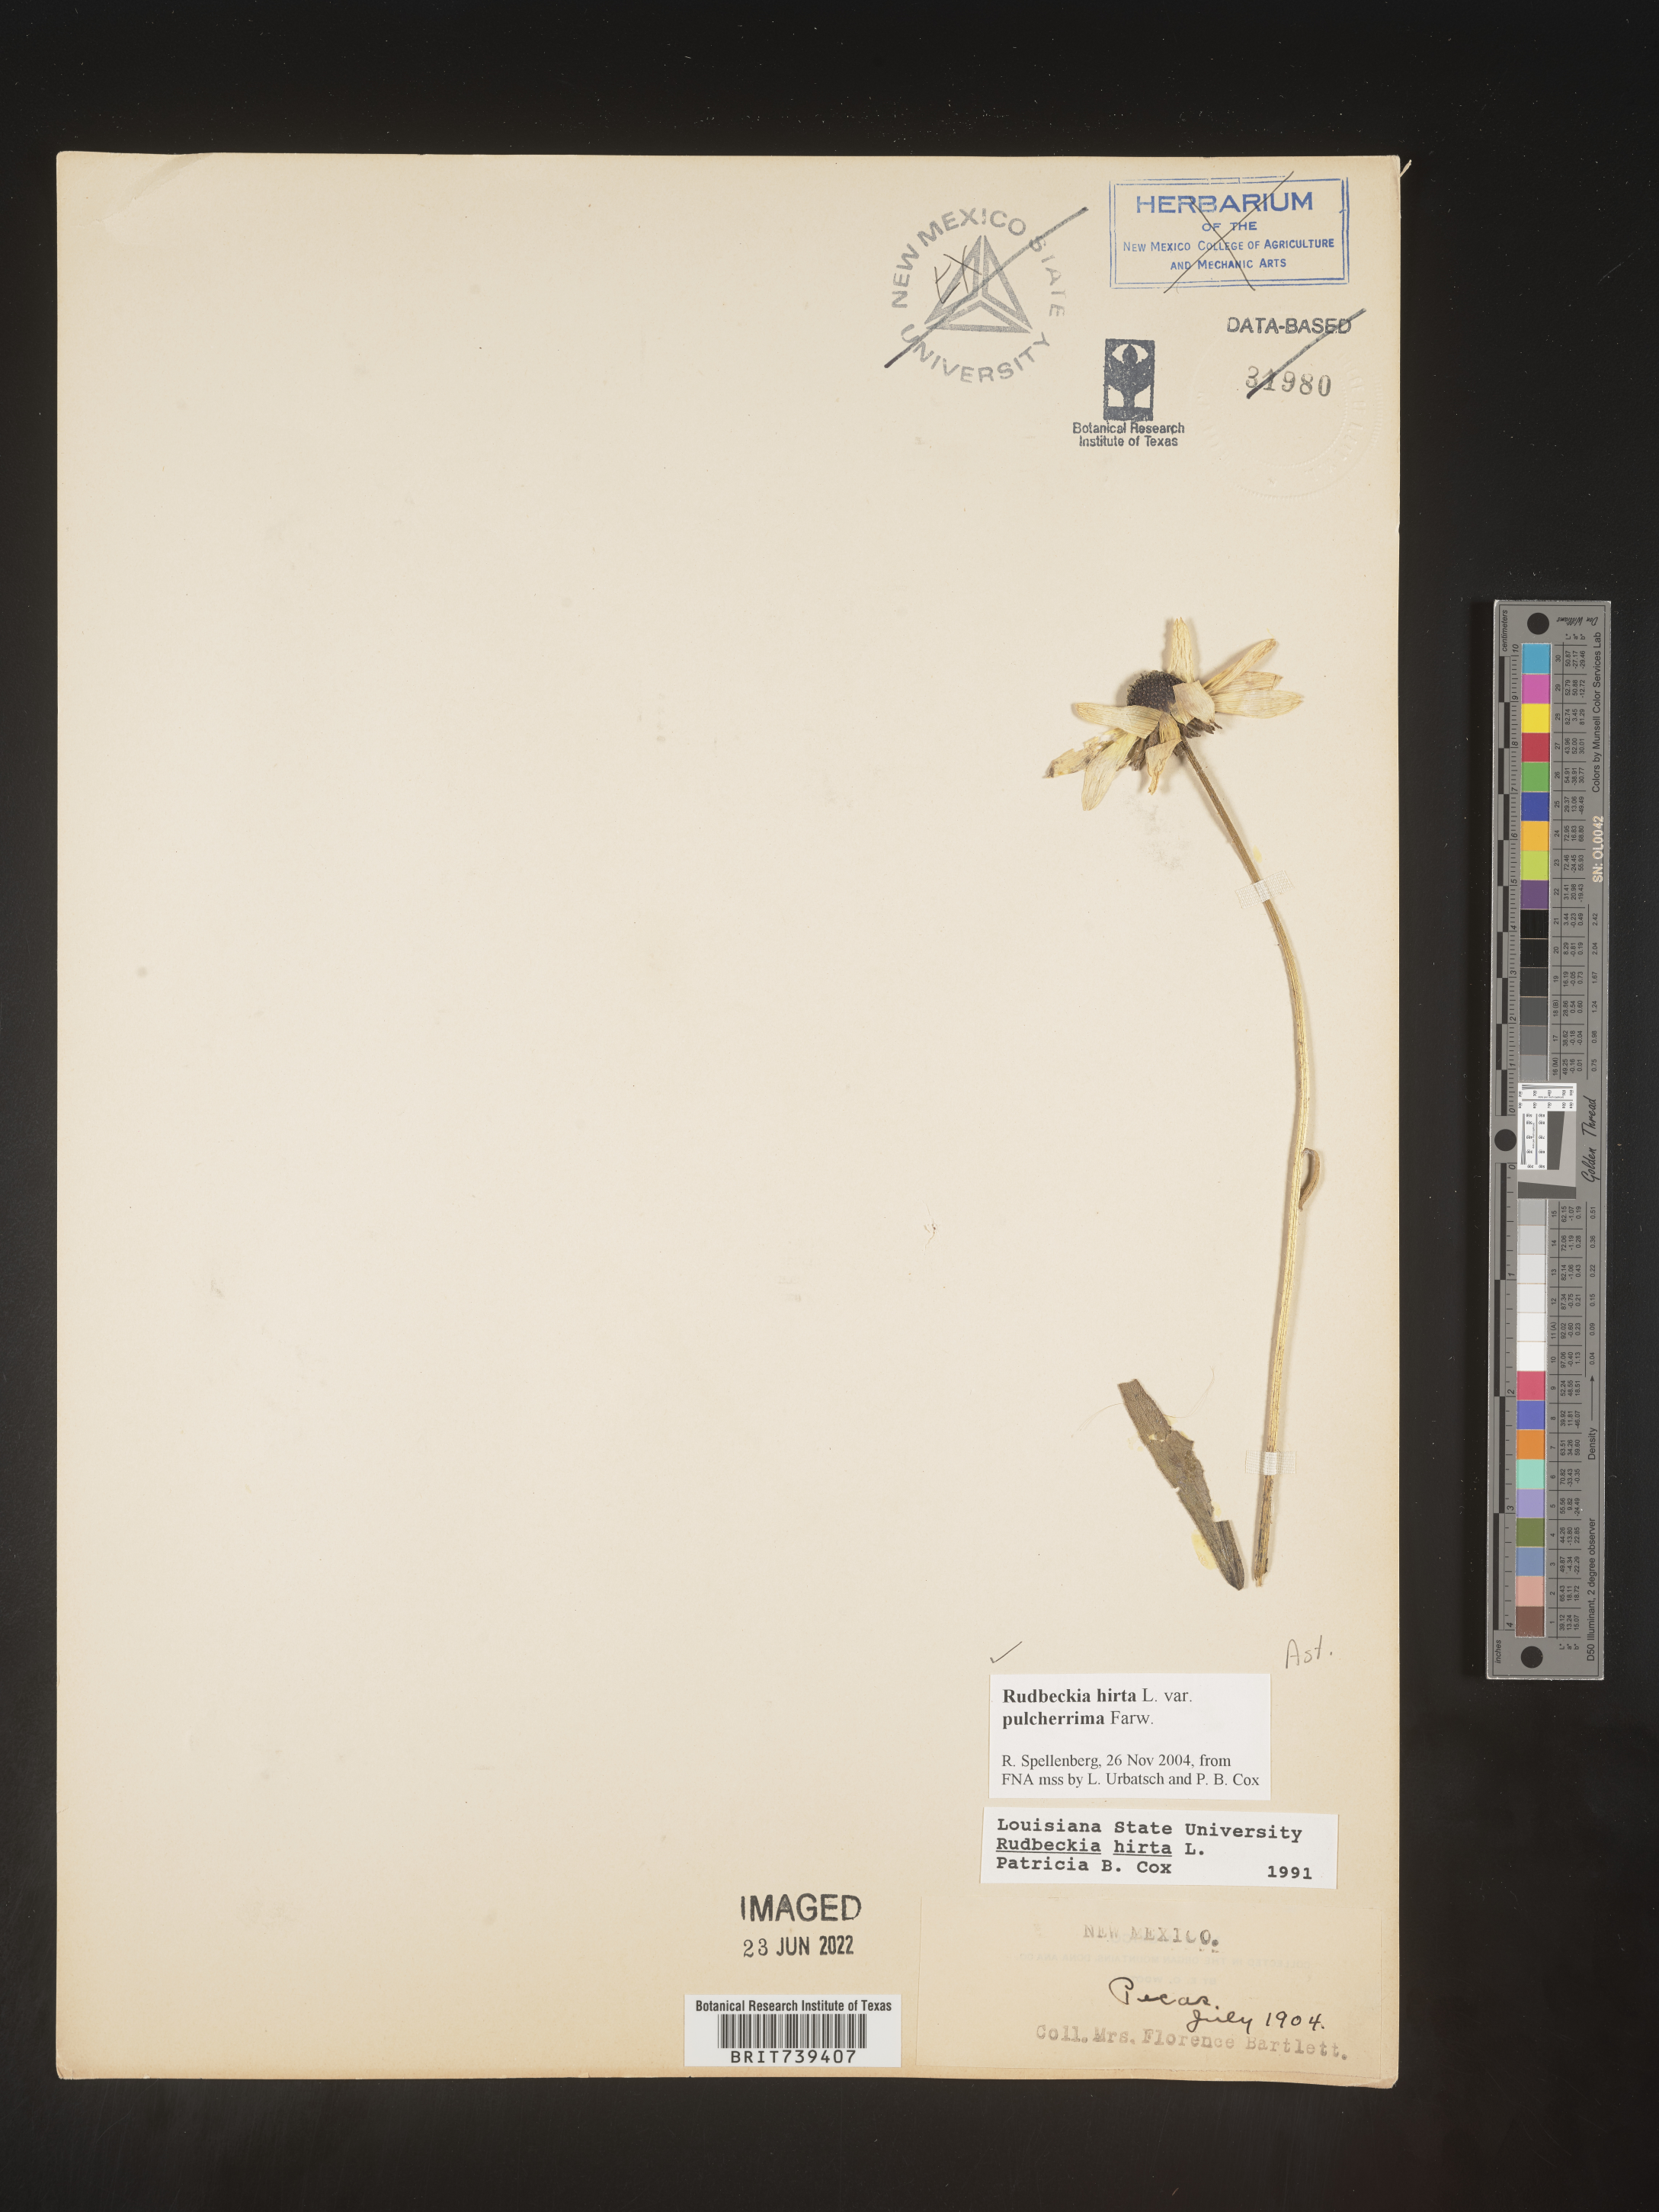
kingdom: Plantae
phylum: Tracheophyta
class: Magnoliopsida
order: Asterales
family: Asteraceae
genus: Rudbeckia
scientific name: Rudbeckia hirta
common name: Black-eyed-susan
